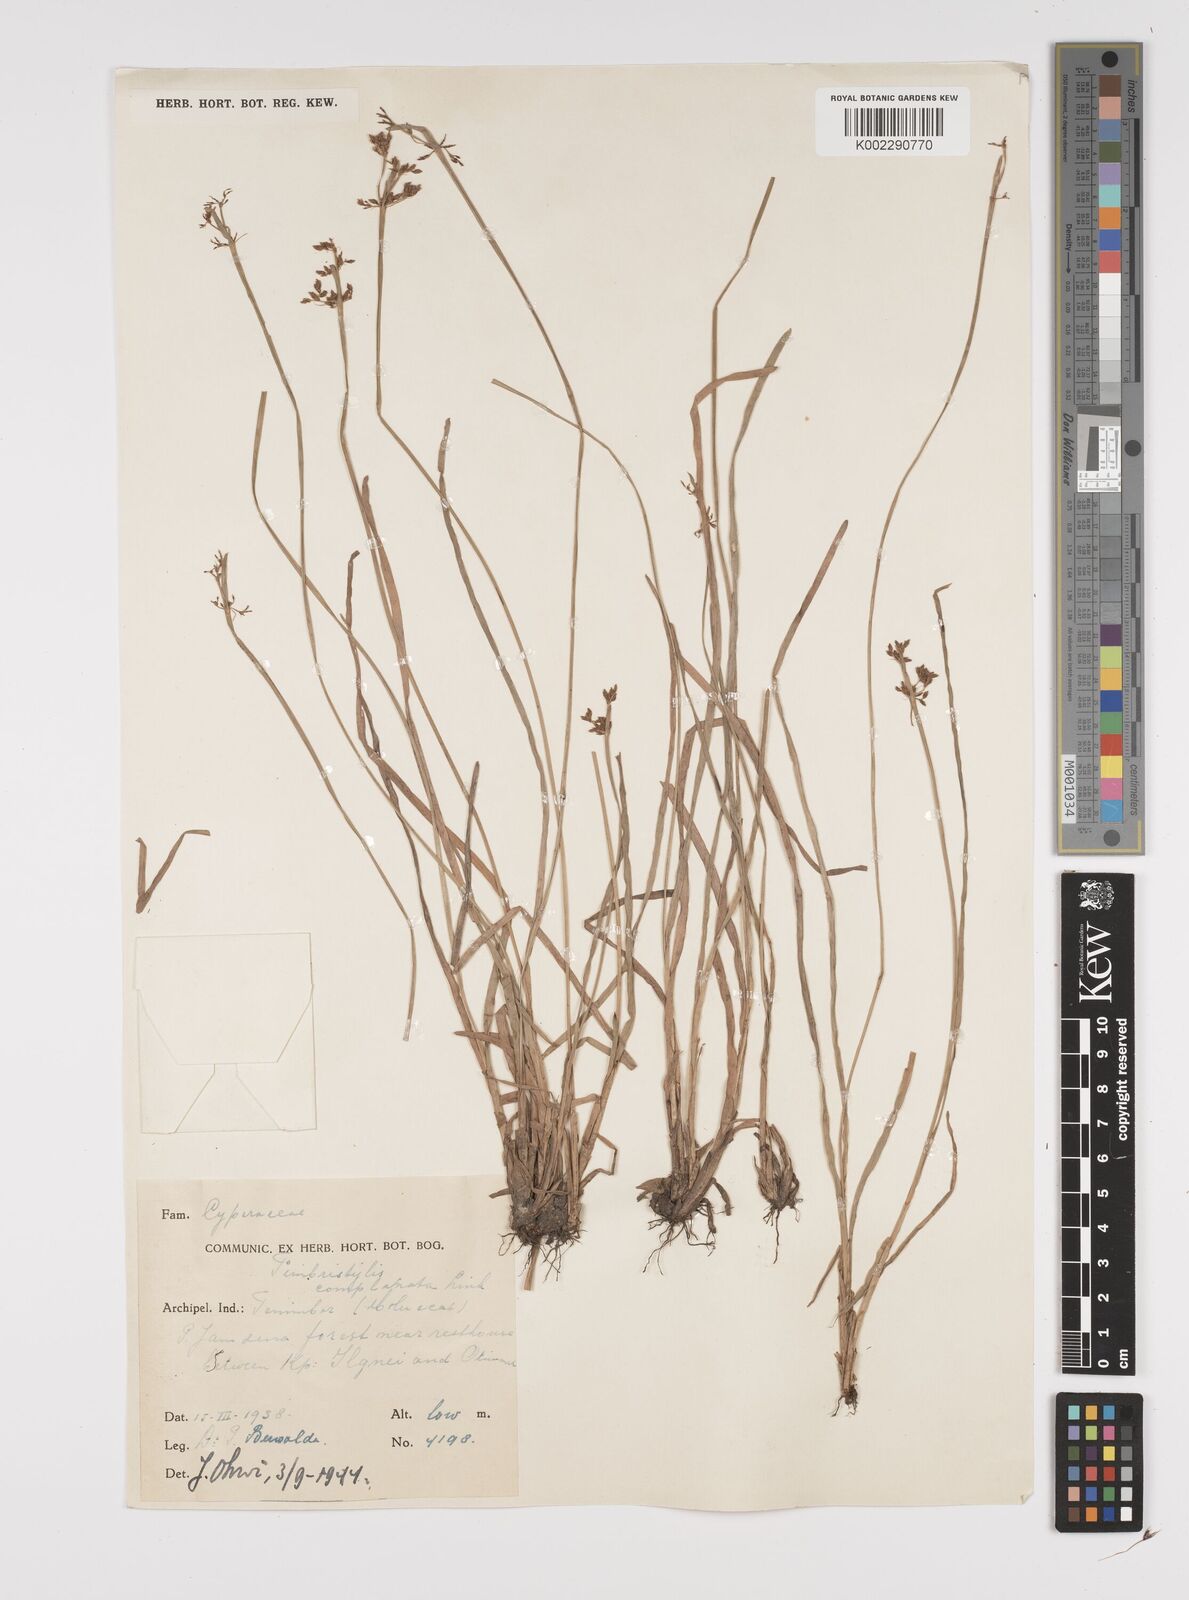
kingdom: Plantae
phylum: Tracheophyta
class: Liliopsida
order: Poales
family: Cyperaceae
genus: Fimbristylis
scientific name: Fimbristylis complanata
